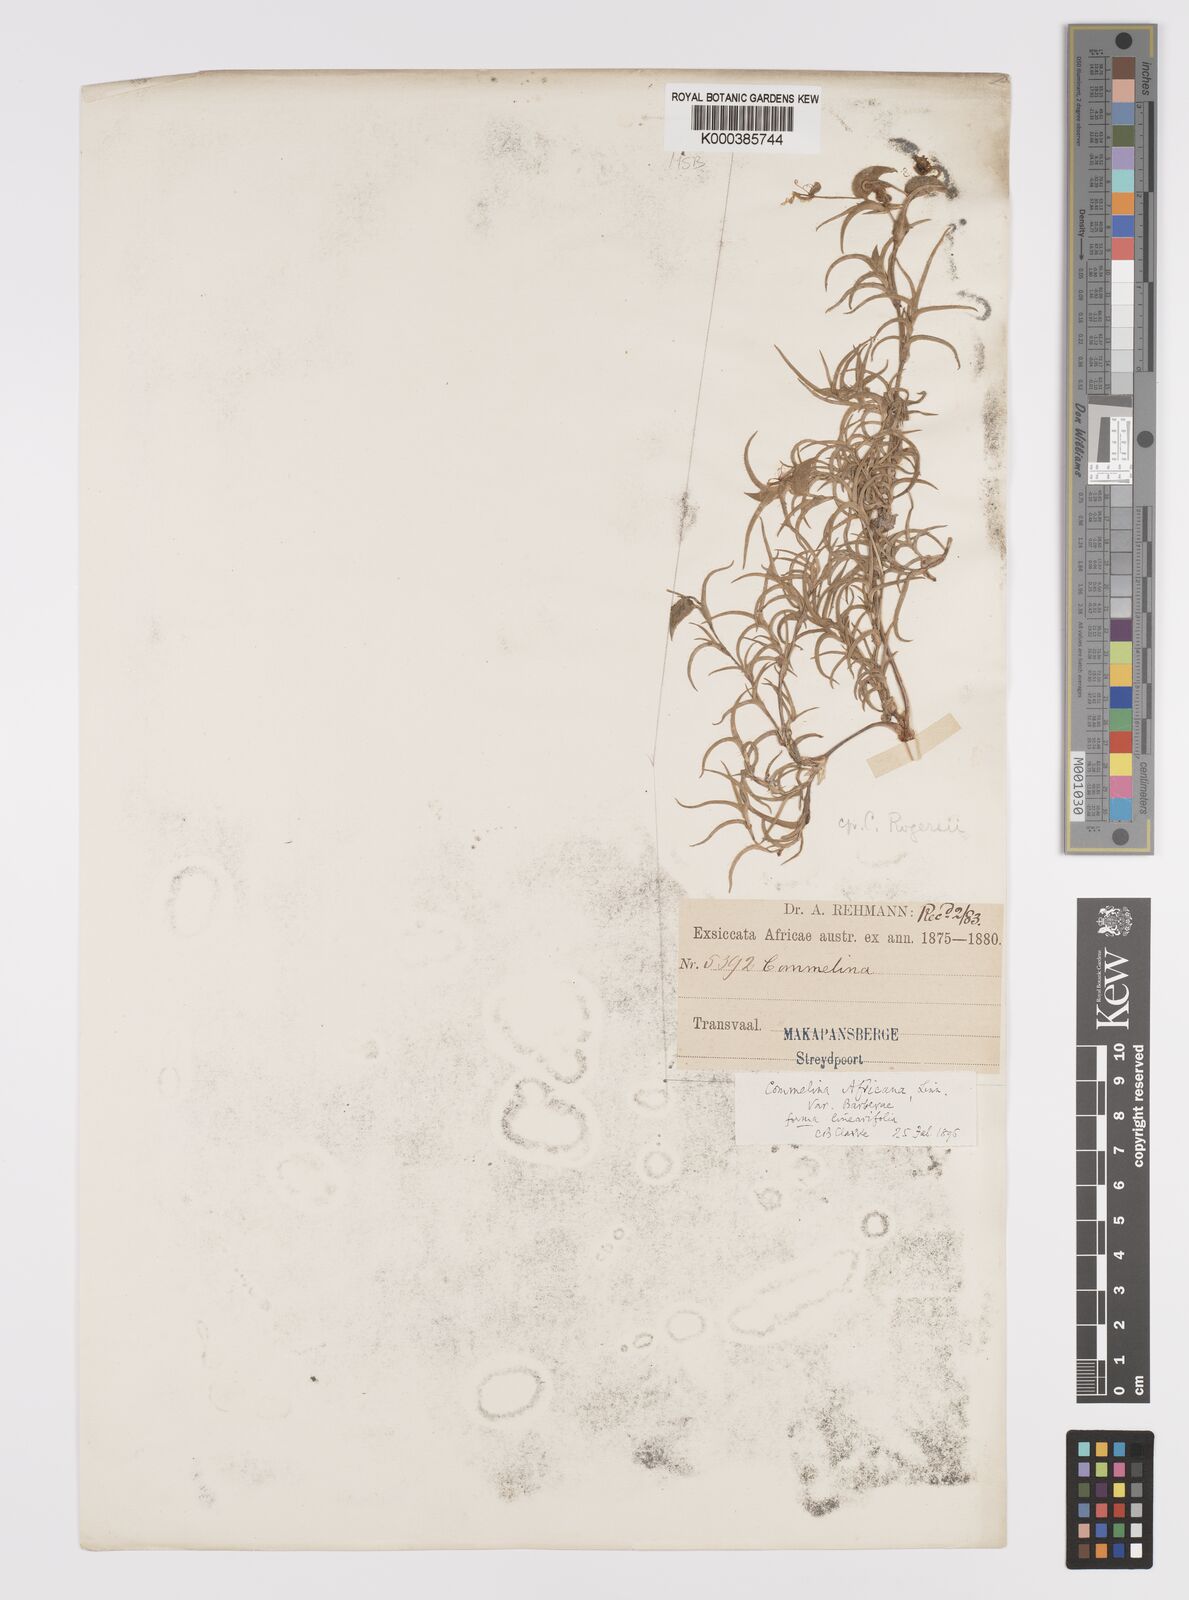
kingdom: Plantae
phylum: Tracheophyta
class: Liliopsida
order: Commelinales
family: Commelinaceae
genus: Commelina
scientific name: Commelina rogersii
